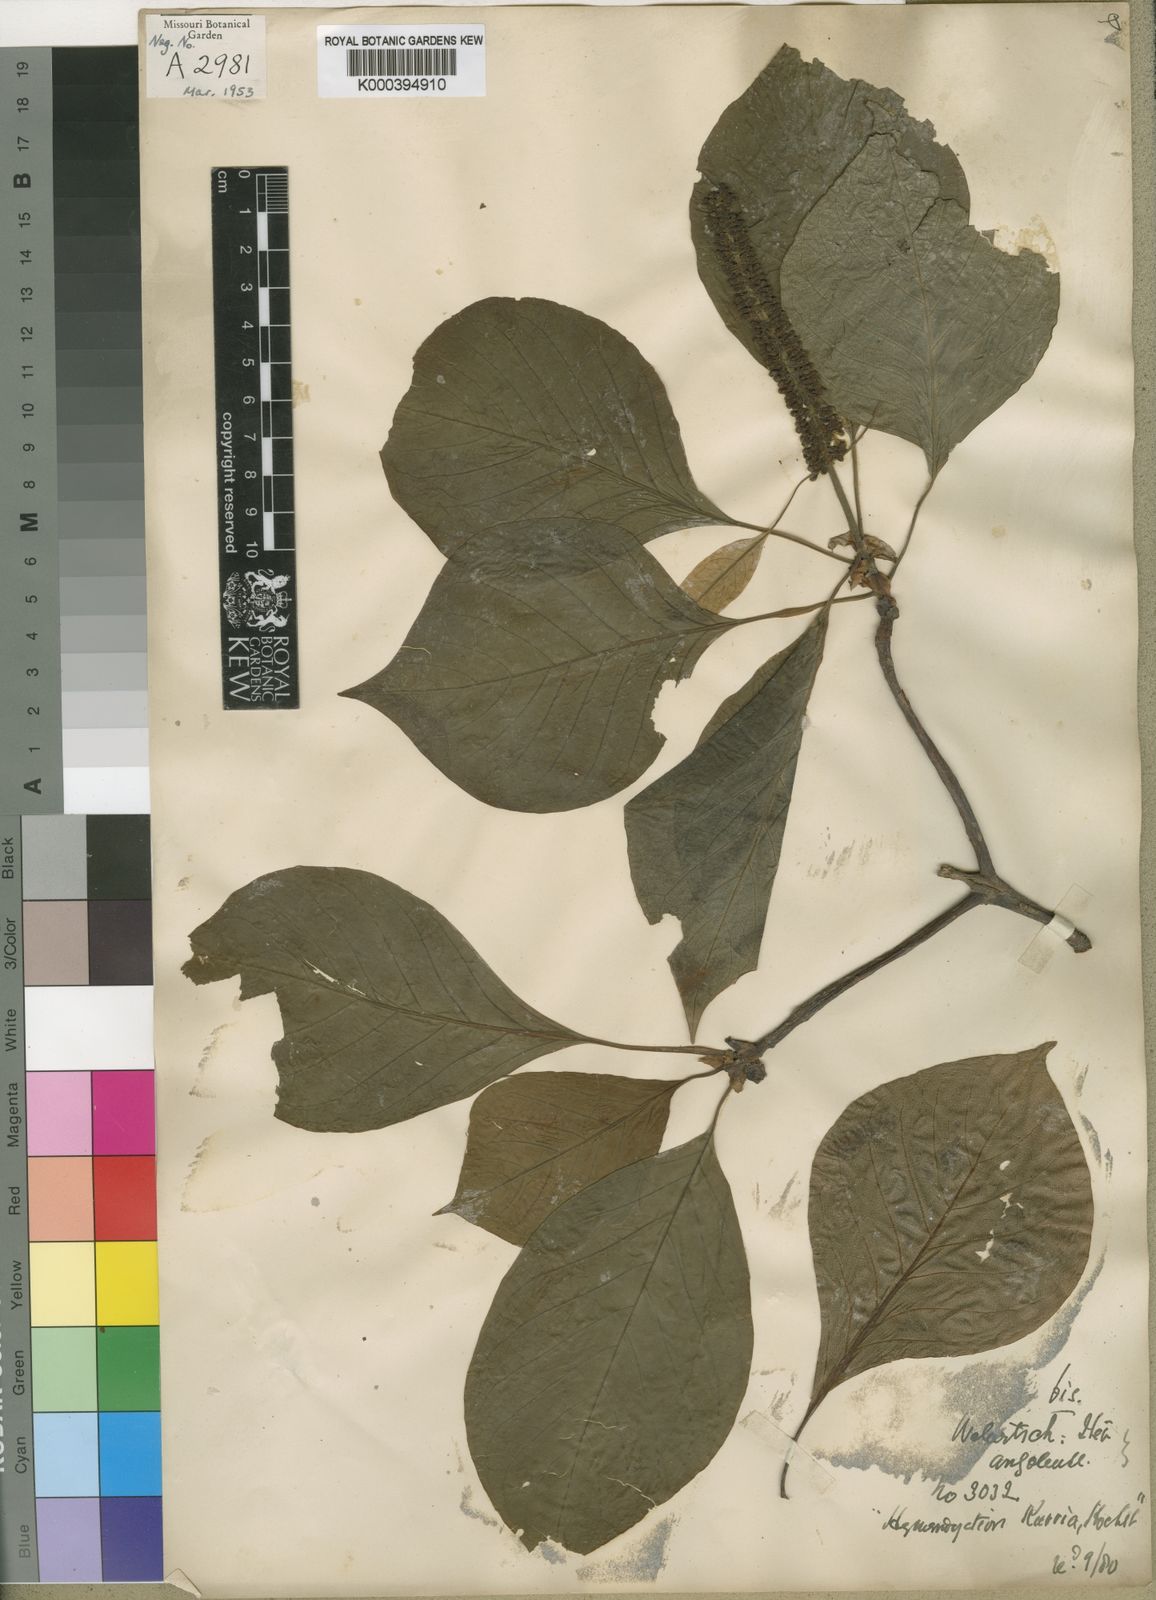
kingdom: Plantae
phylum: Tracheophyta
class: Magnoliopsida
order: Gentianales
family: Rubiaceae
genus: Hymenodictyon
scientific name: Hymenodictyon floribundum
